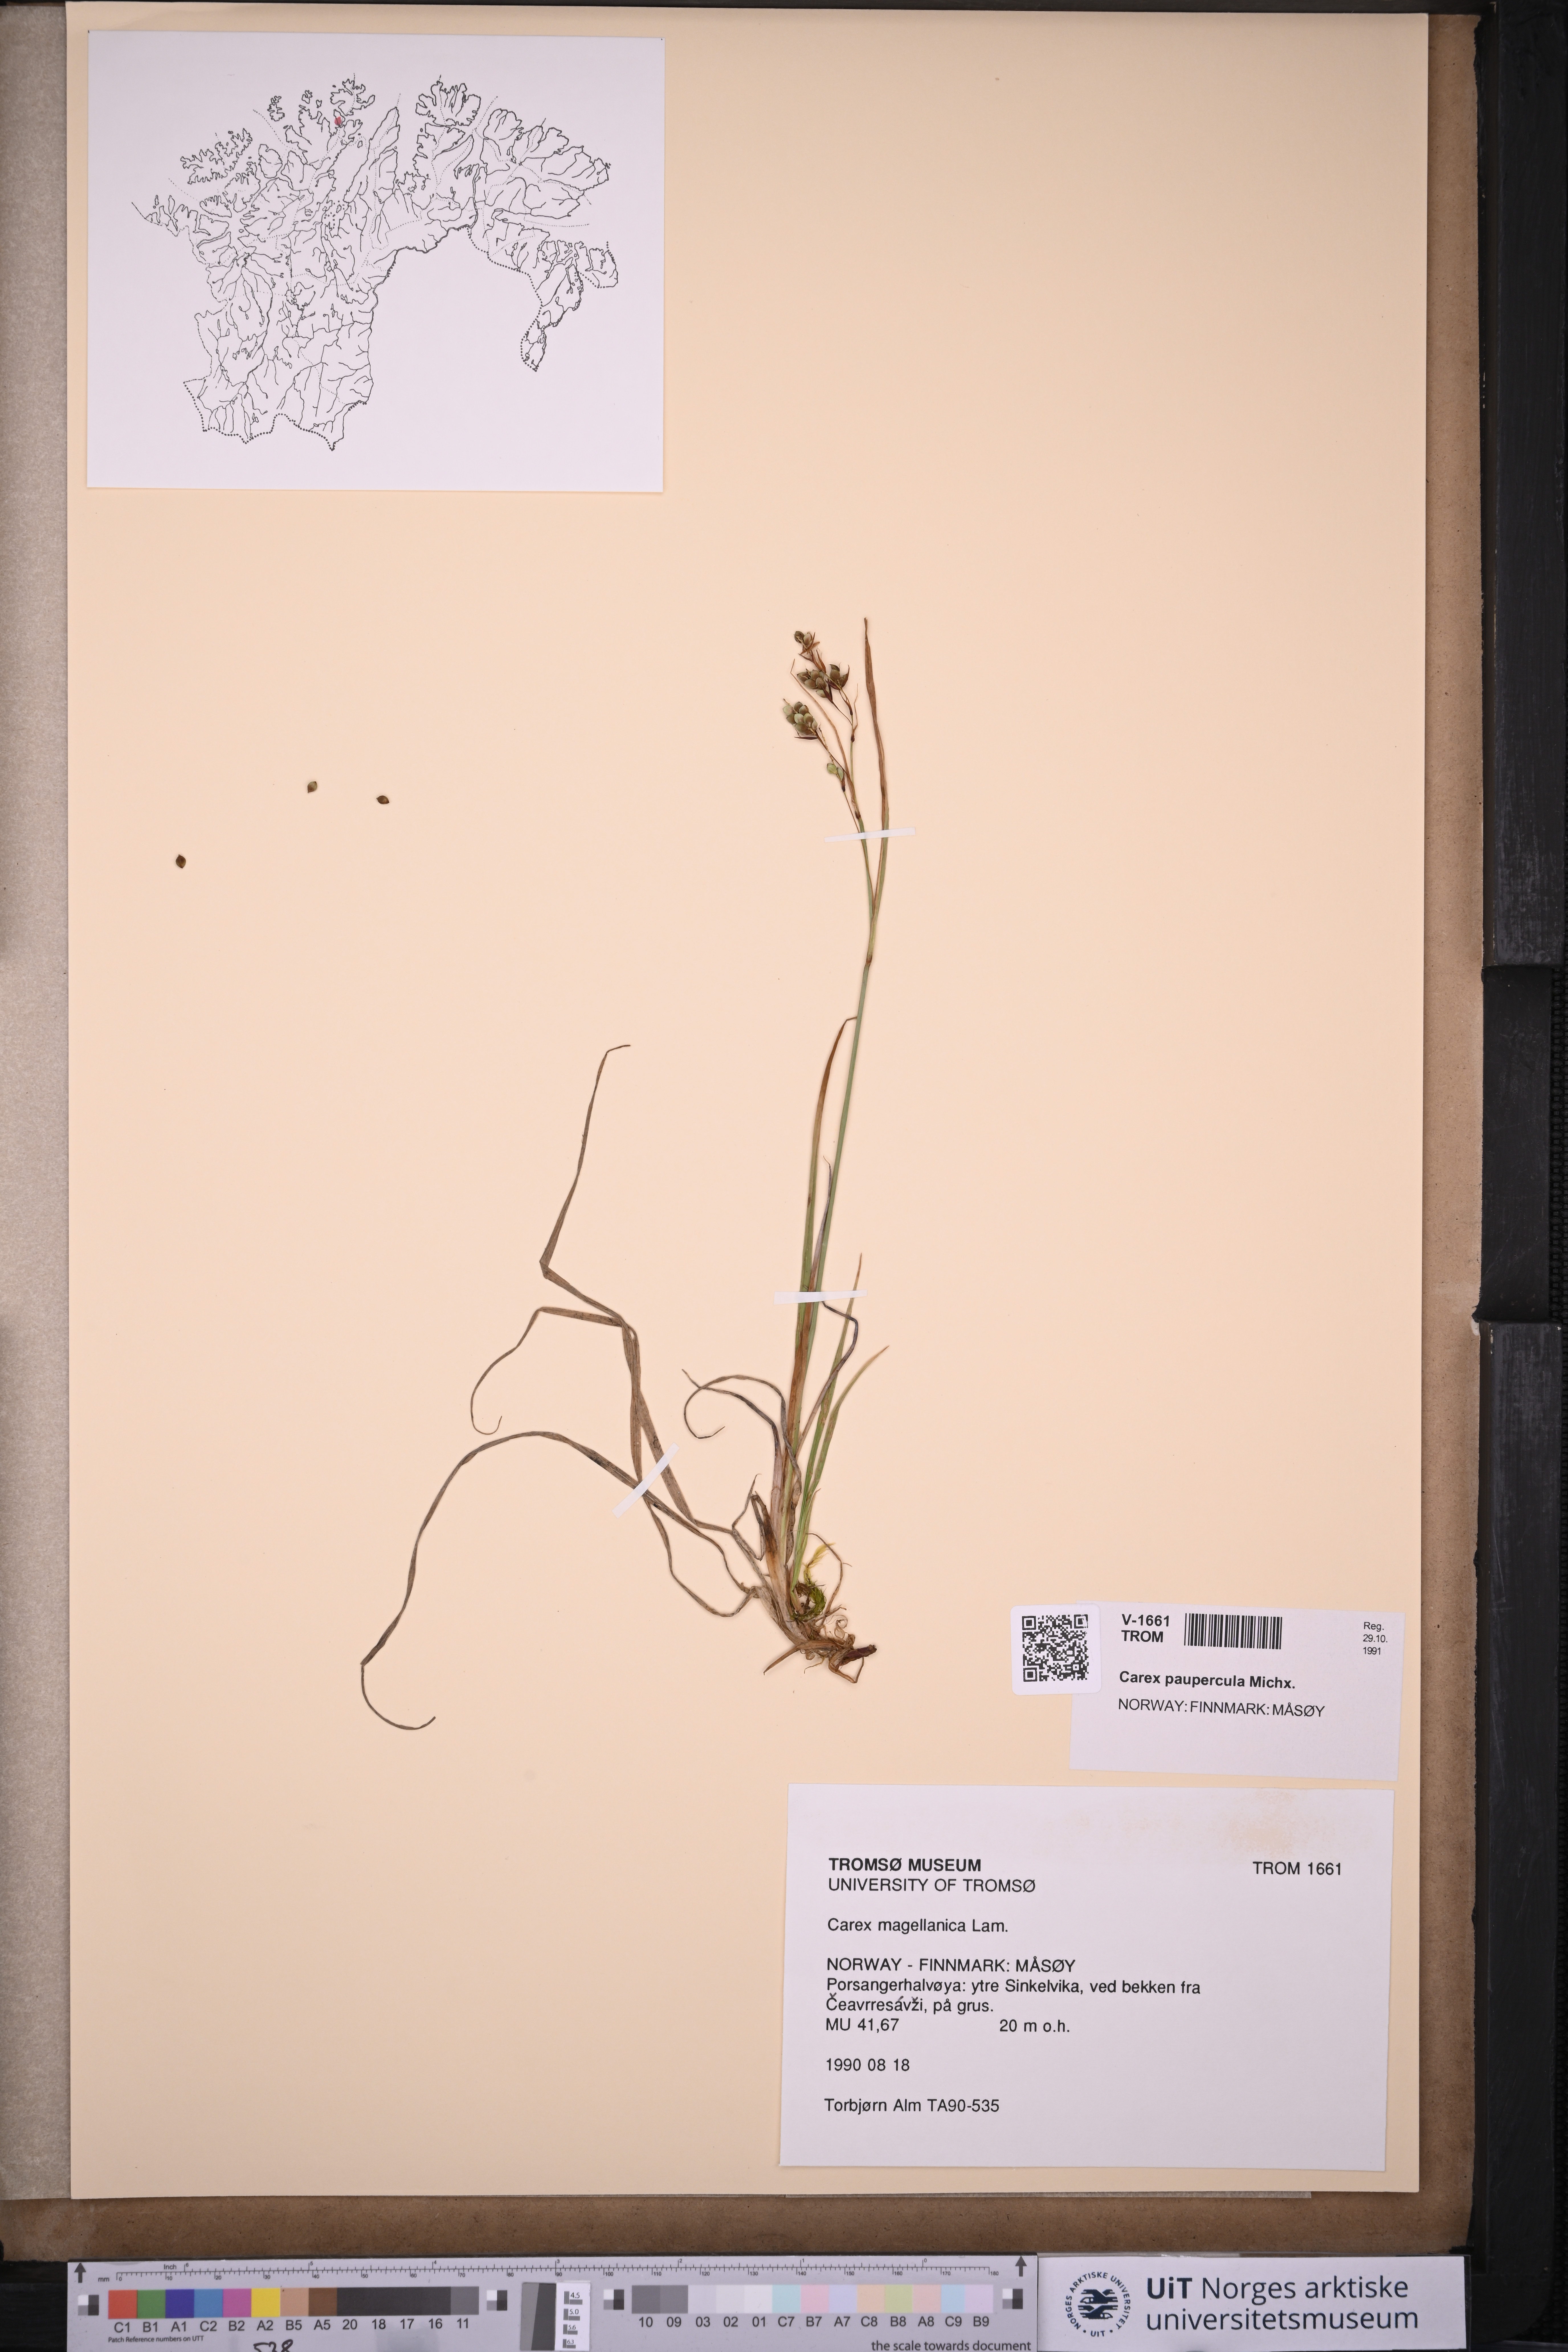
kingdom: Plantae
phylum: Tracheophyta
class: Liliopsida
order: Poales
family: Cyperaceae
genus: Carex
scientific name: Carex magellanica
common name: Bog sedge
